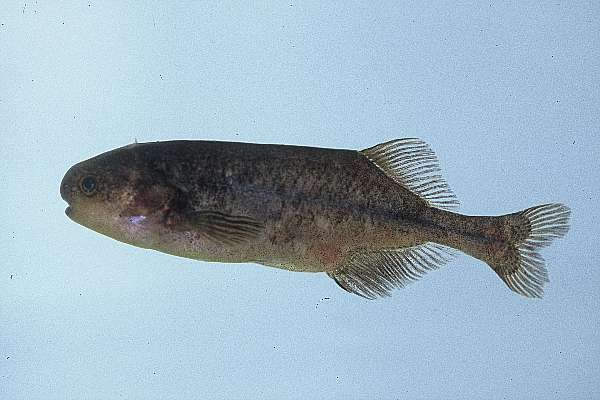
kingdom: Animalia
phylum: Chordata
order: Osteoglossiformes
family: Mormyridae
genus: Pollimyrus
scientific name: Pollimyrus castelnaui
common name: Dwarf stonebasher
